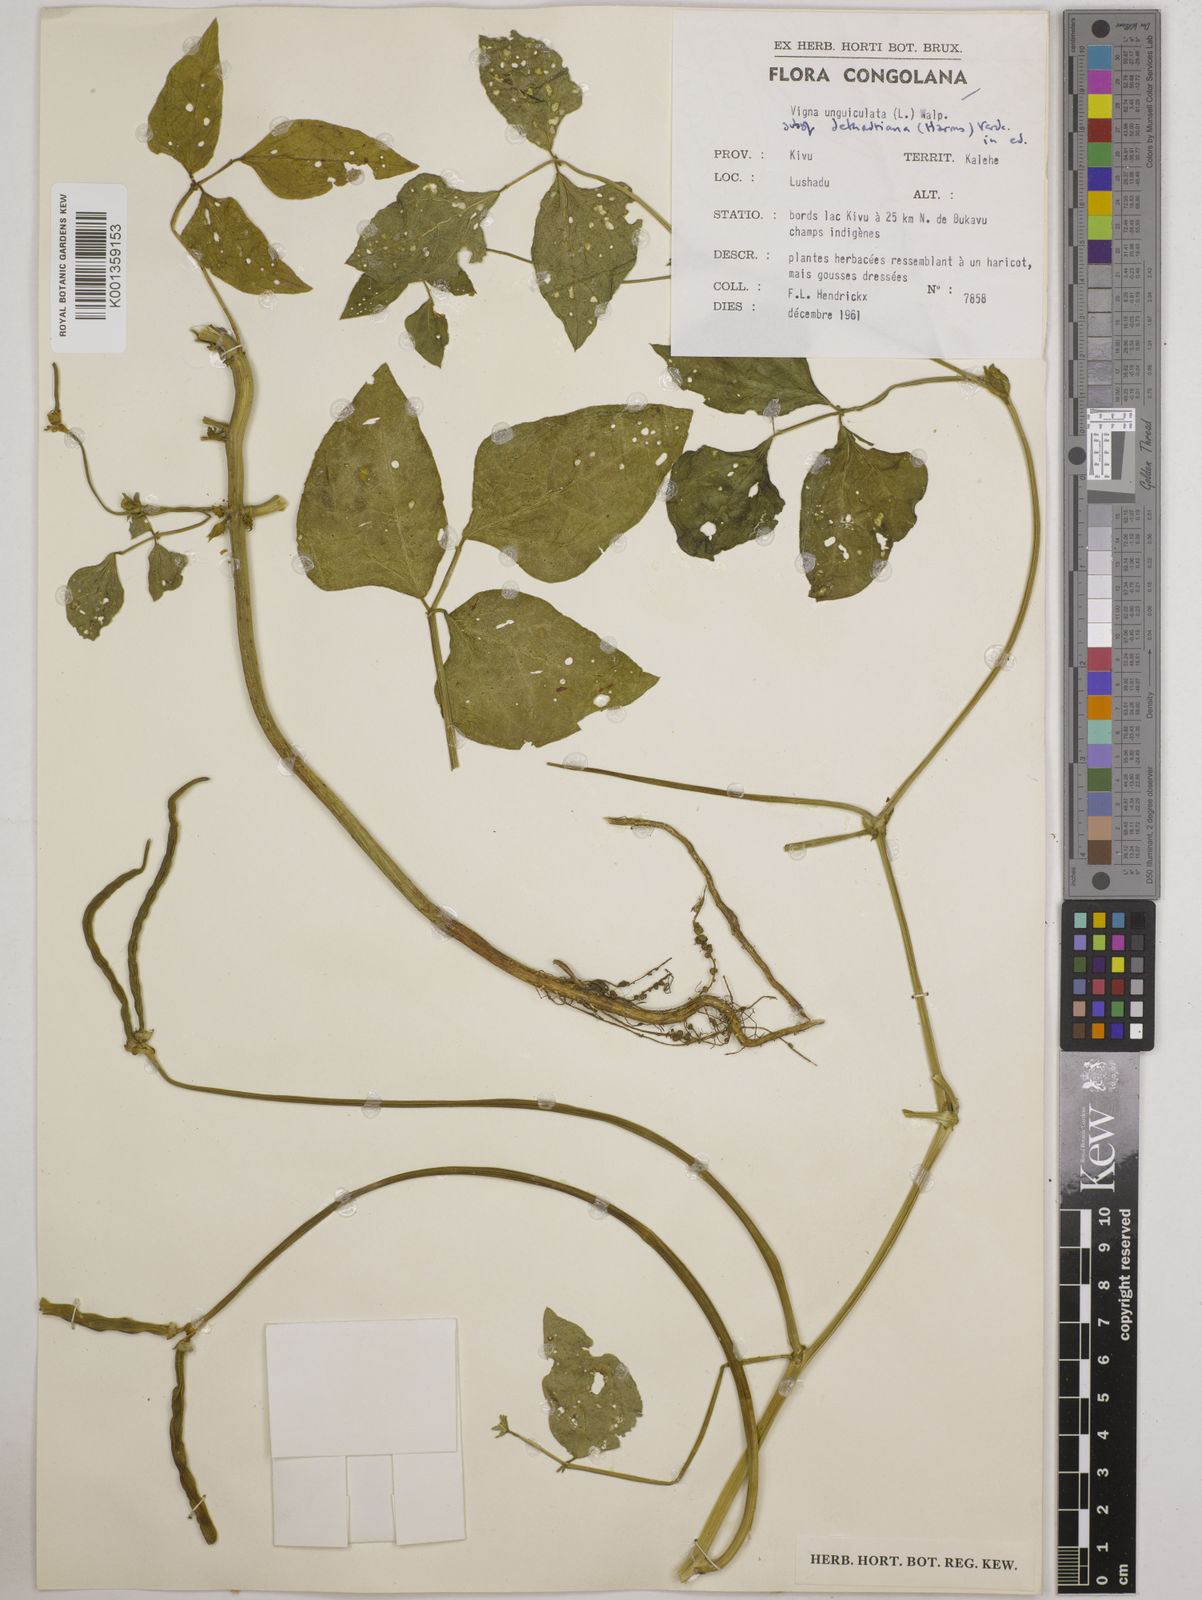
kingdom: Plantae
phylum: Tracheophyta
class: Magnoliopsida
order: Fabales
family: Fabaceae
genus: Vigna
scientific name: Vigna
